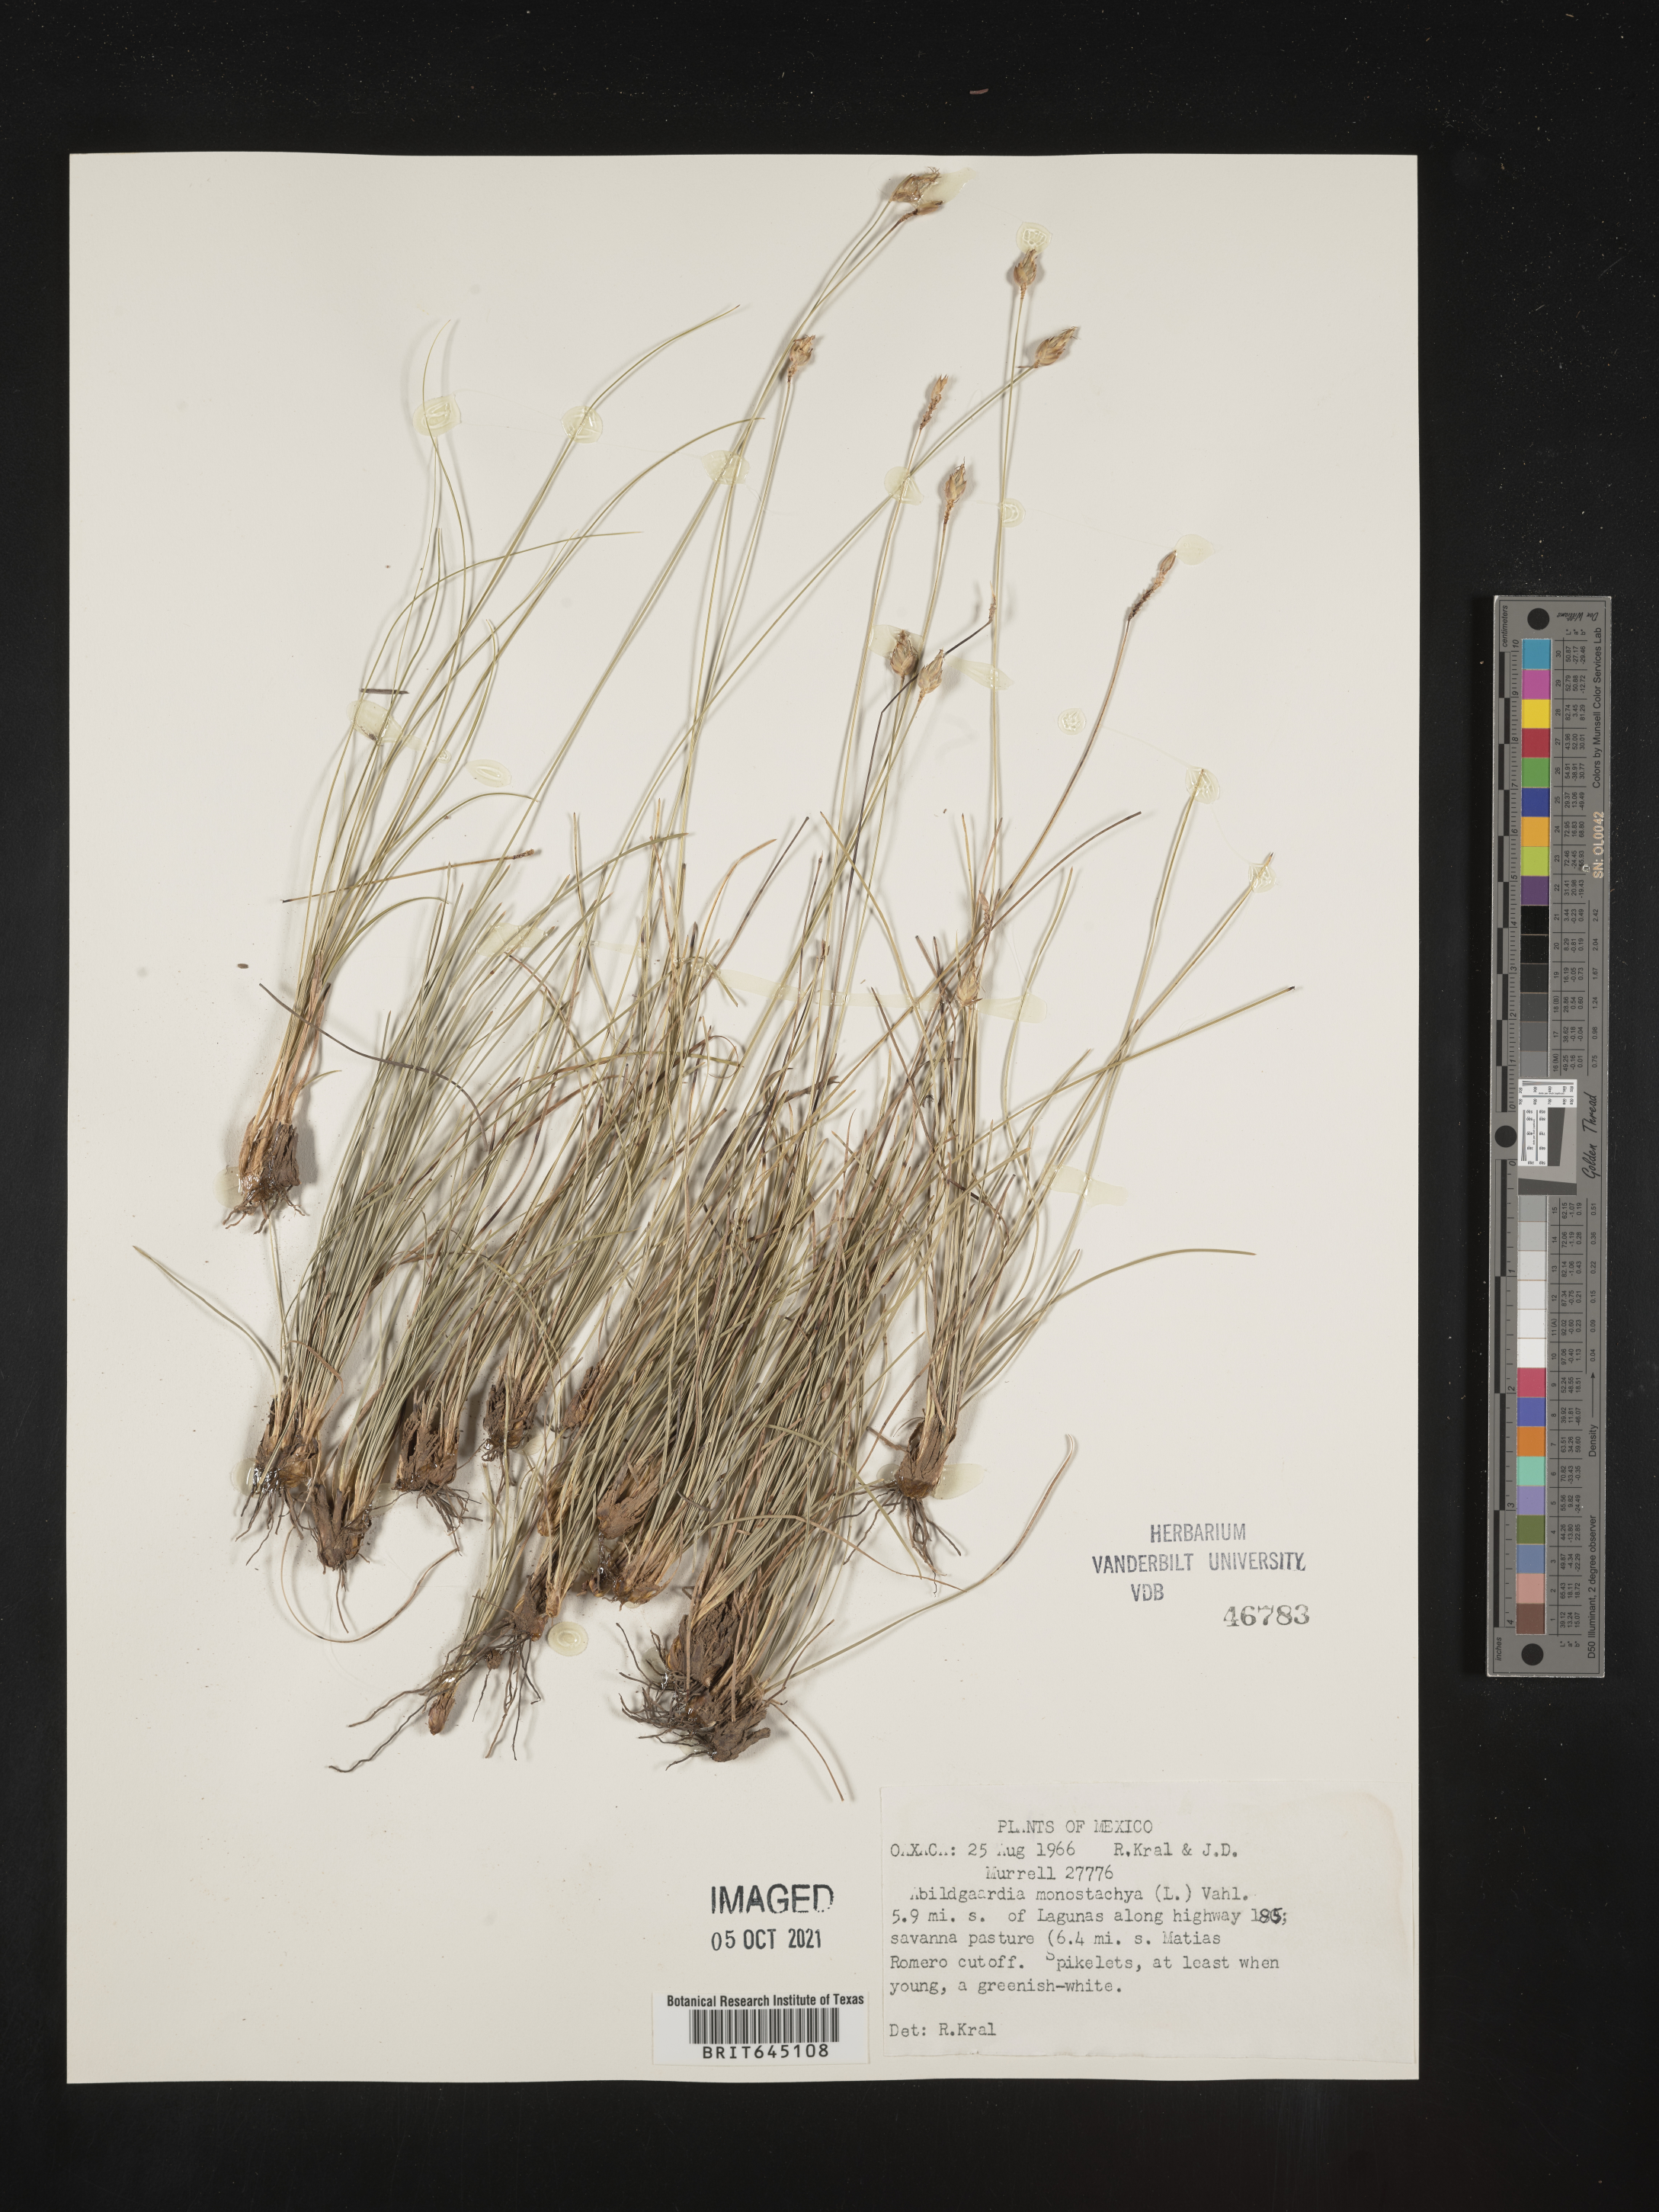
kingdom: Plantae
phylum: Tracheophyta
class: Liliopsida
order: Poales
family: Cyperaceae
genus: Abildgaardia
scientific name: Abildgaardia
